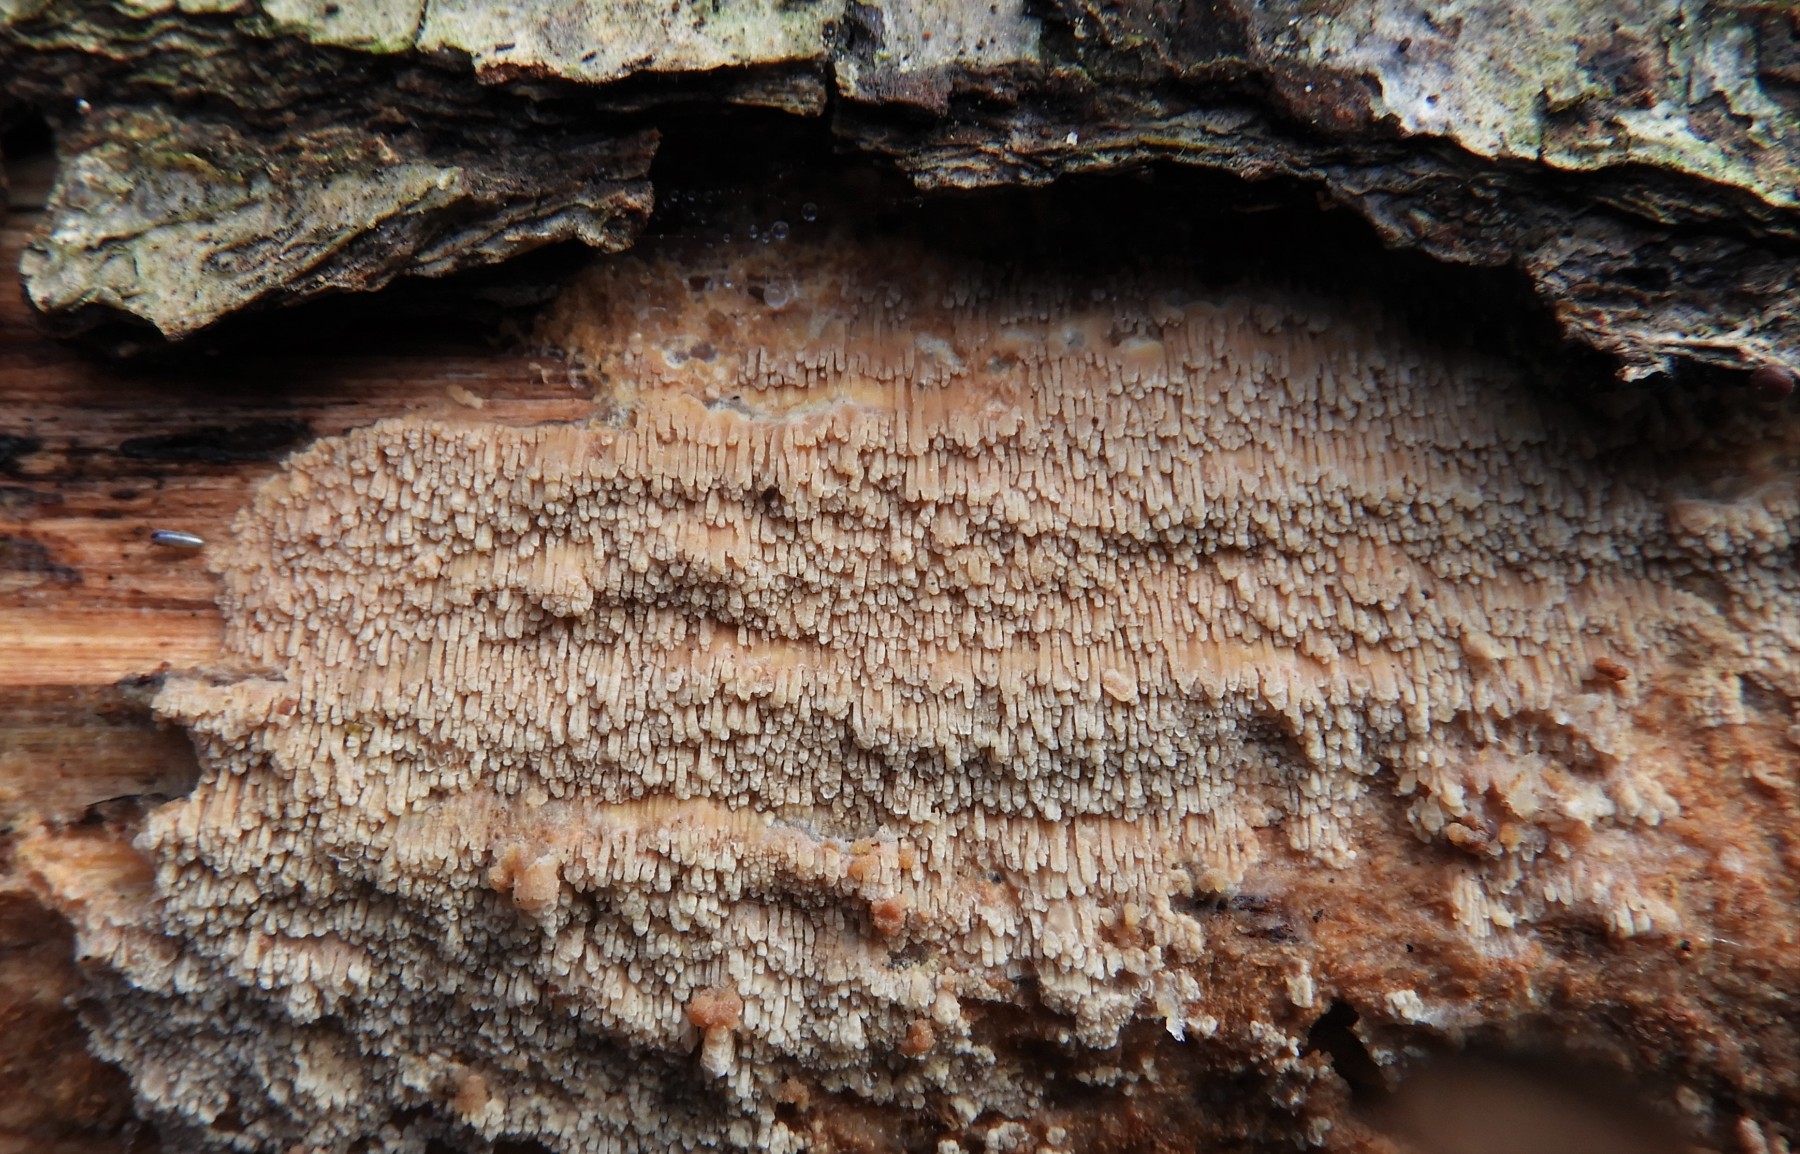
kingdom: Fungi
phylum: Basidiomycota
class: Agaricomycetes
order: Polyporales
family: Meruliaceae
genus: Phlebia
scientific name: Phlebia rufa
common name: ege-åresvamp
